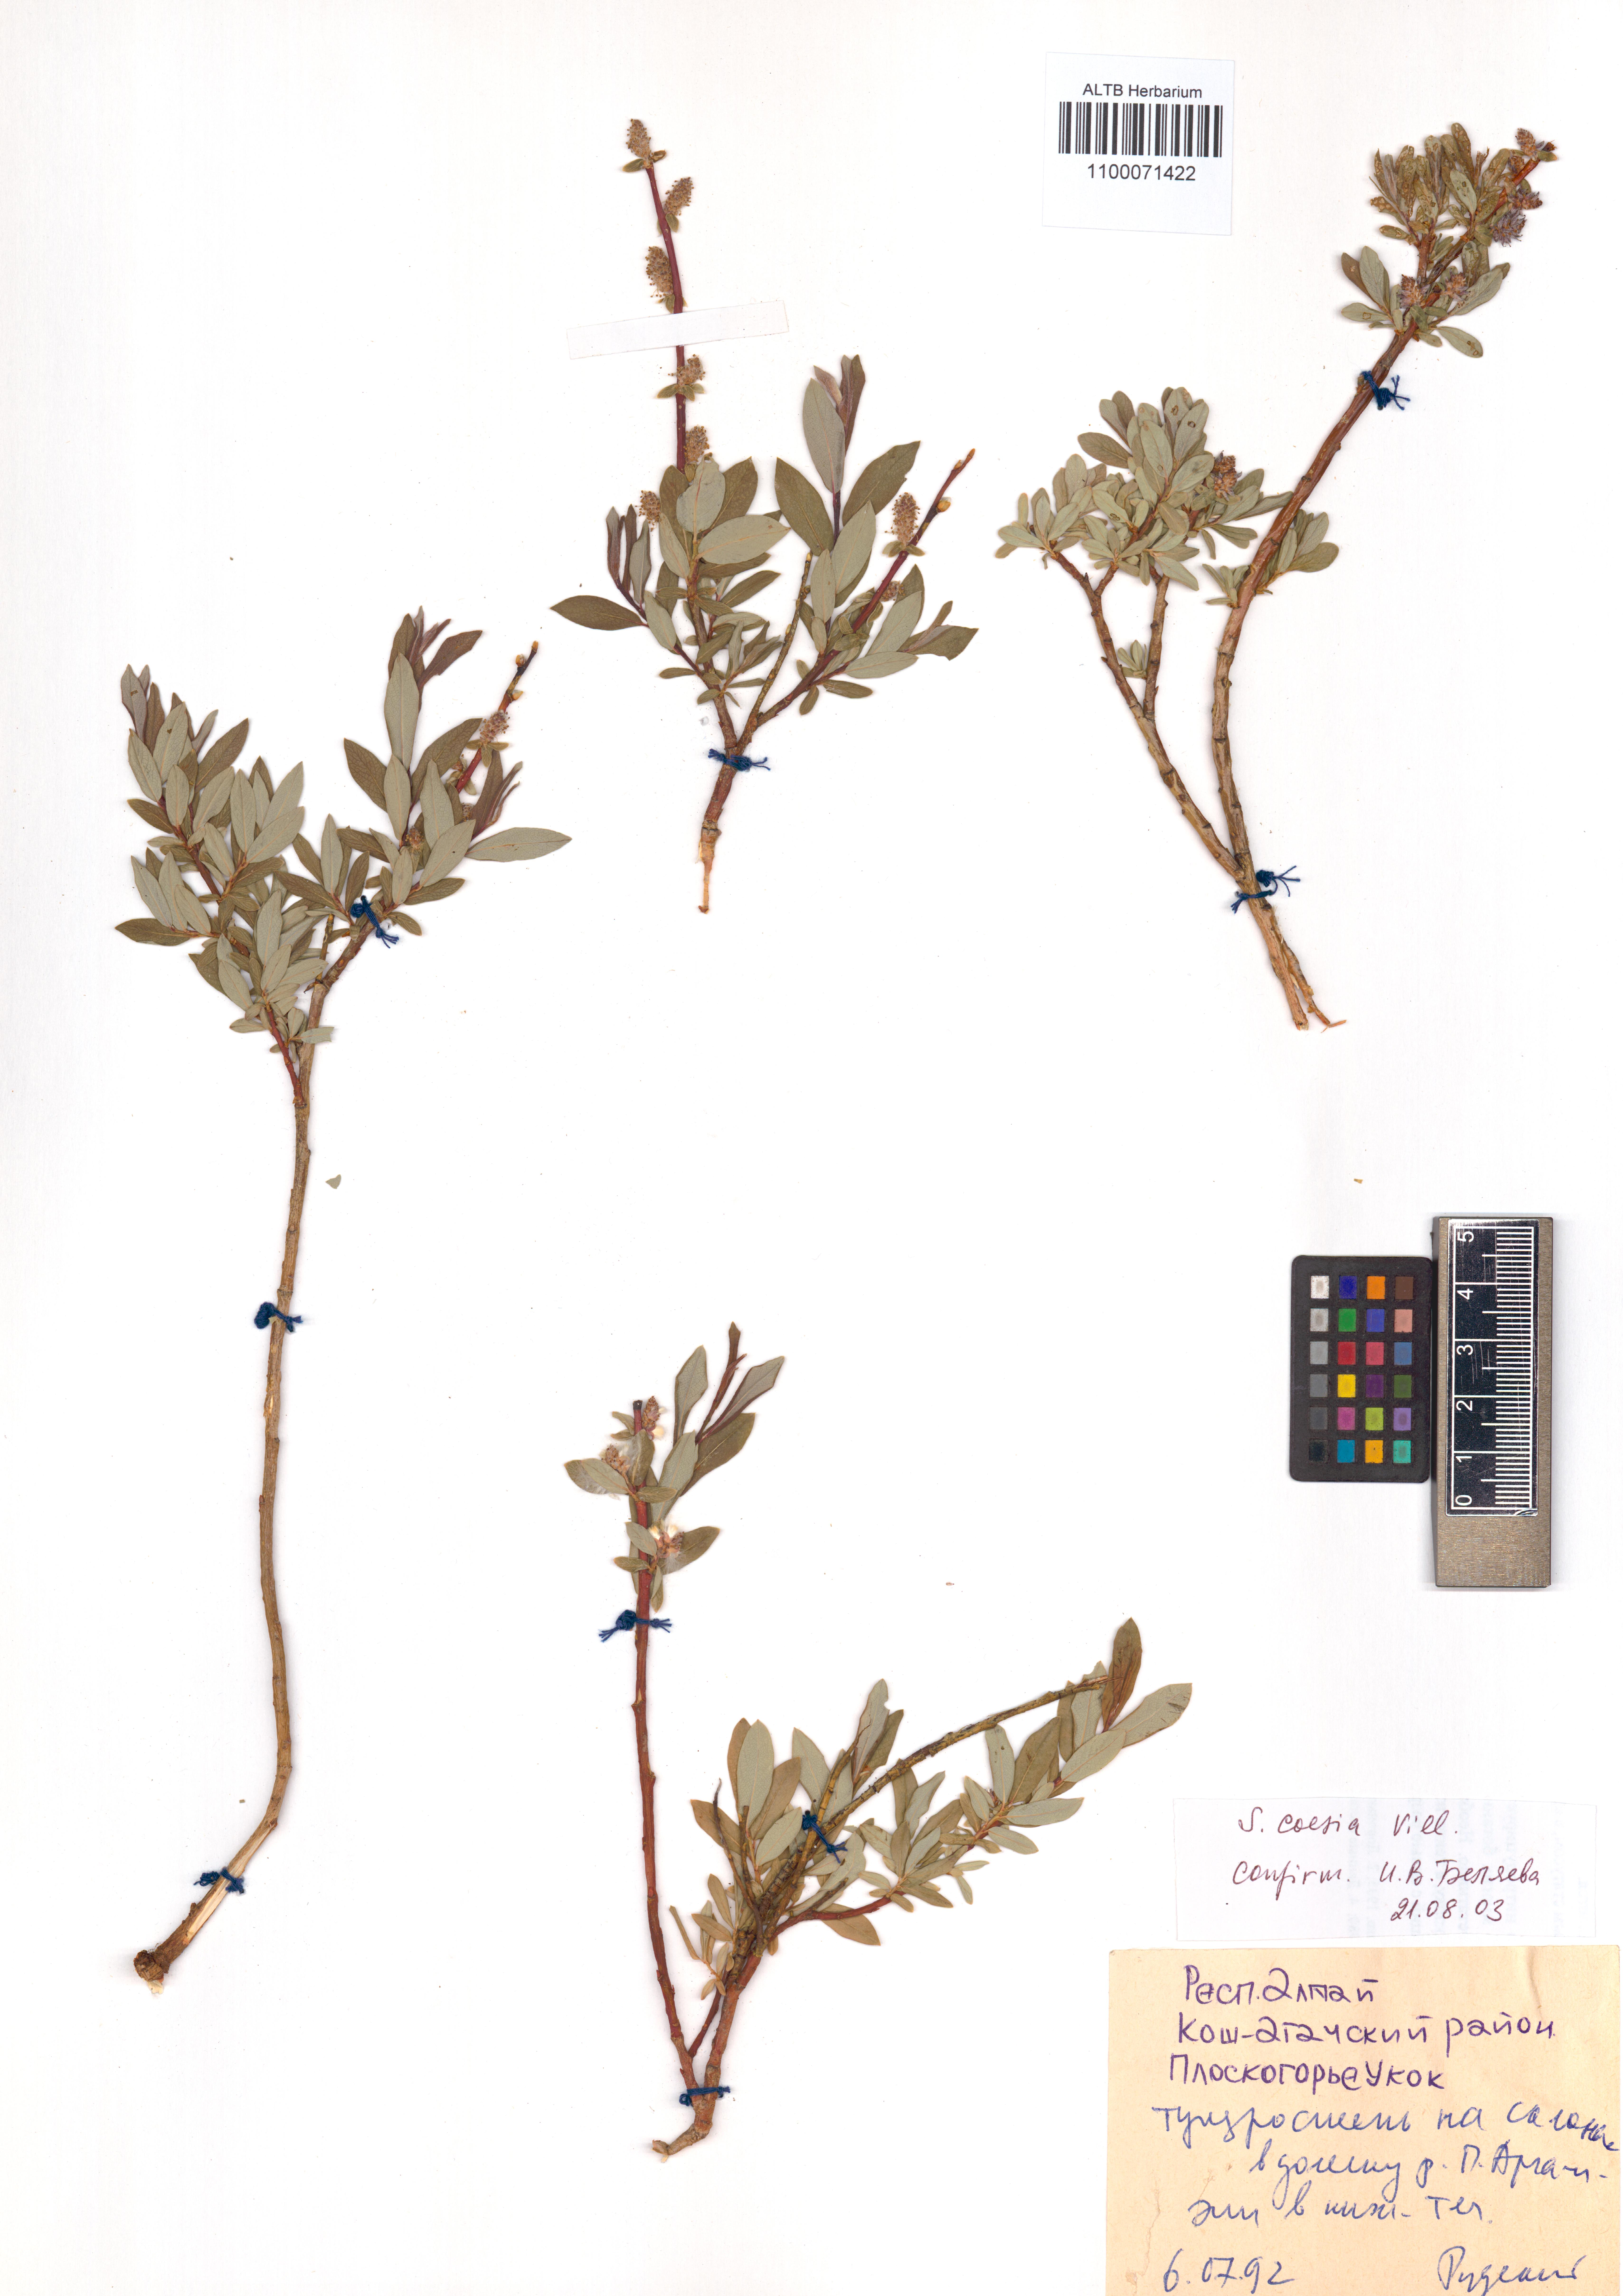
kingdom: Plantae
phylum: Tracheophyta
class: Magnoliopsida
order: Malpighiales
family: Salicaceae
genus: Salix
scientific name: Salix caesia
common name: Blue willow
